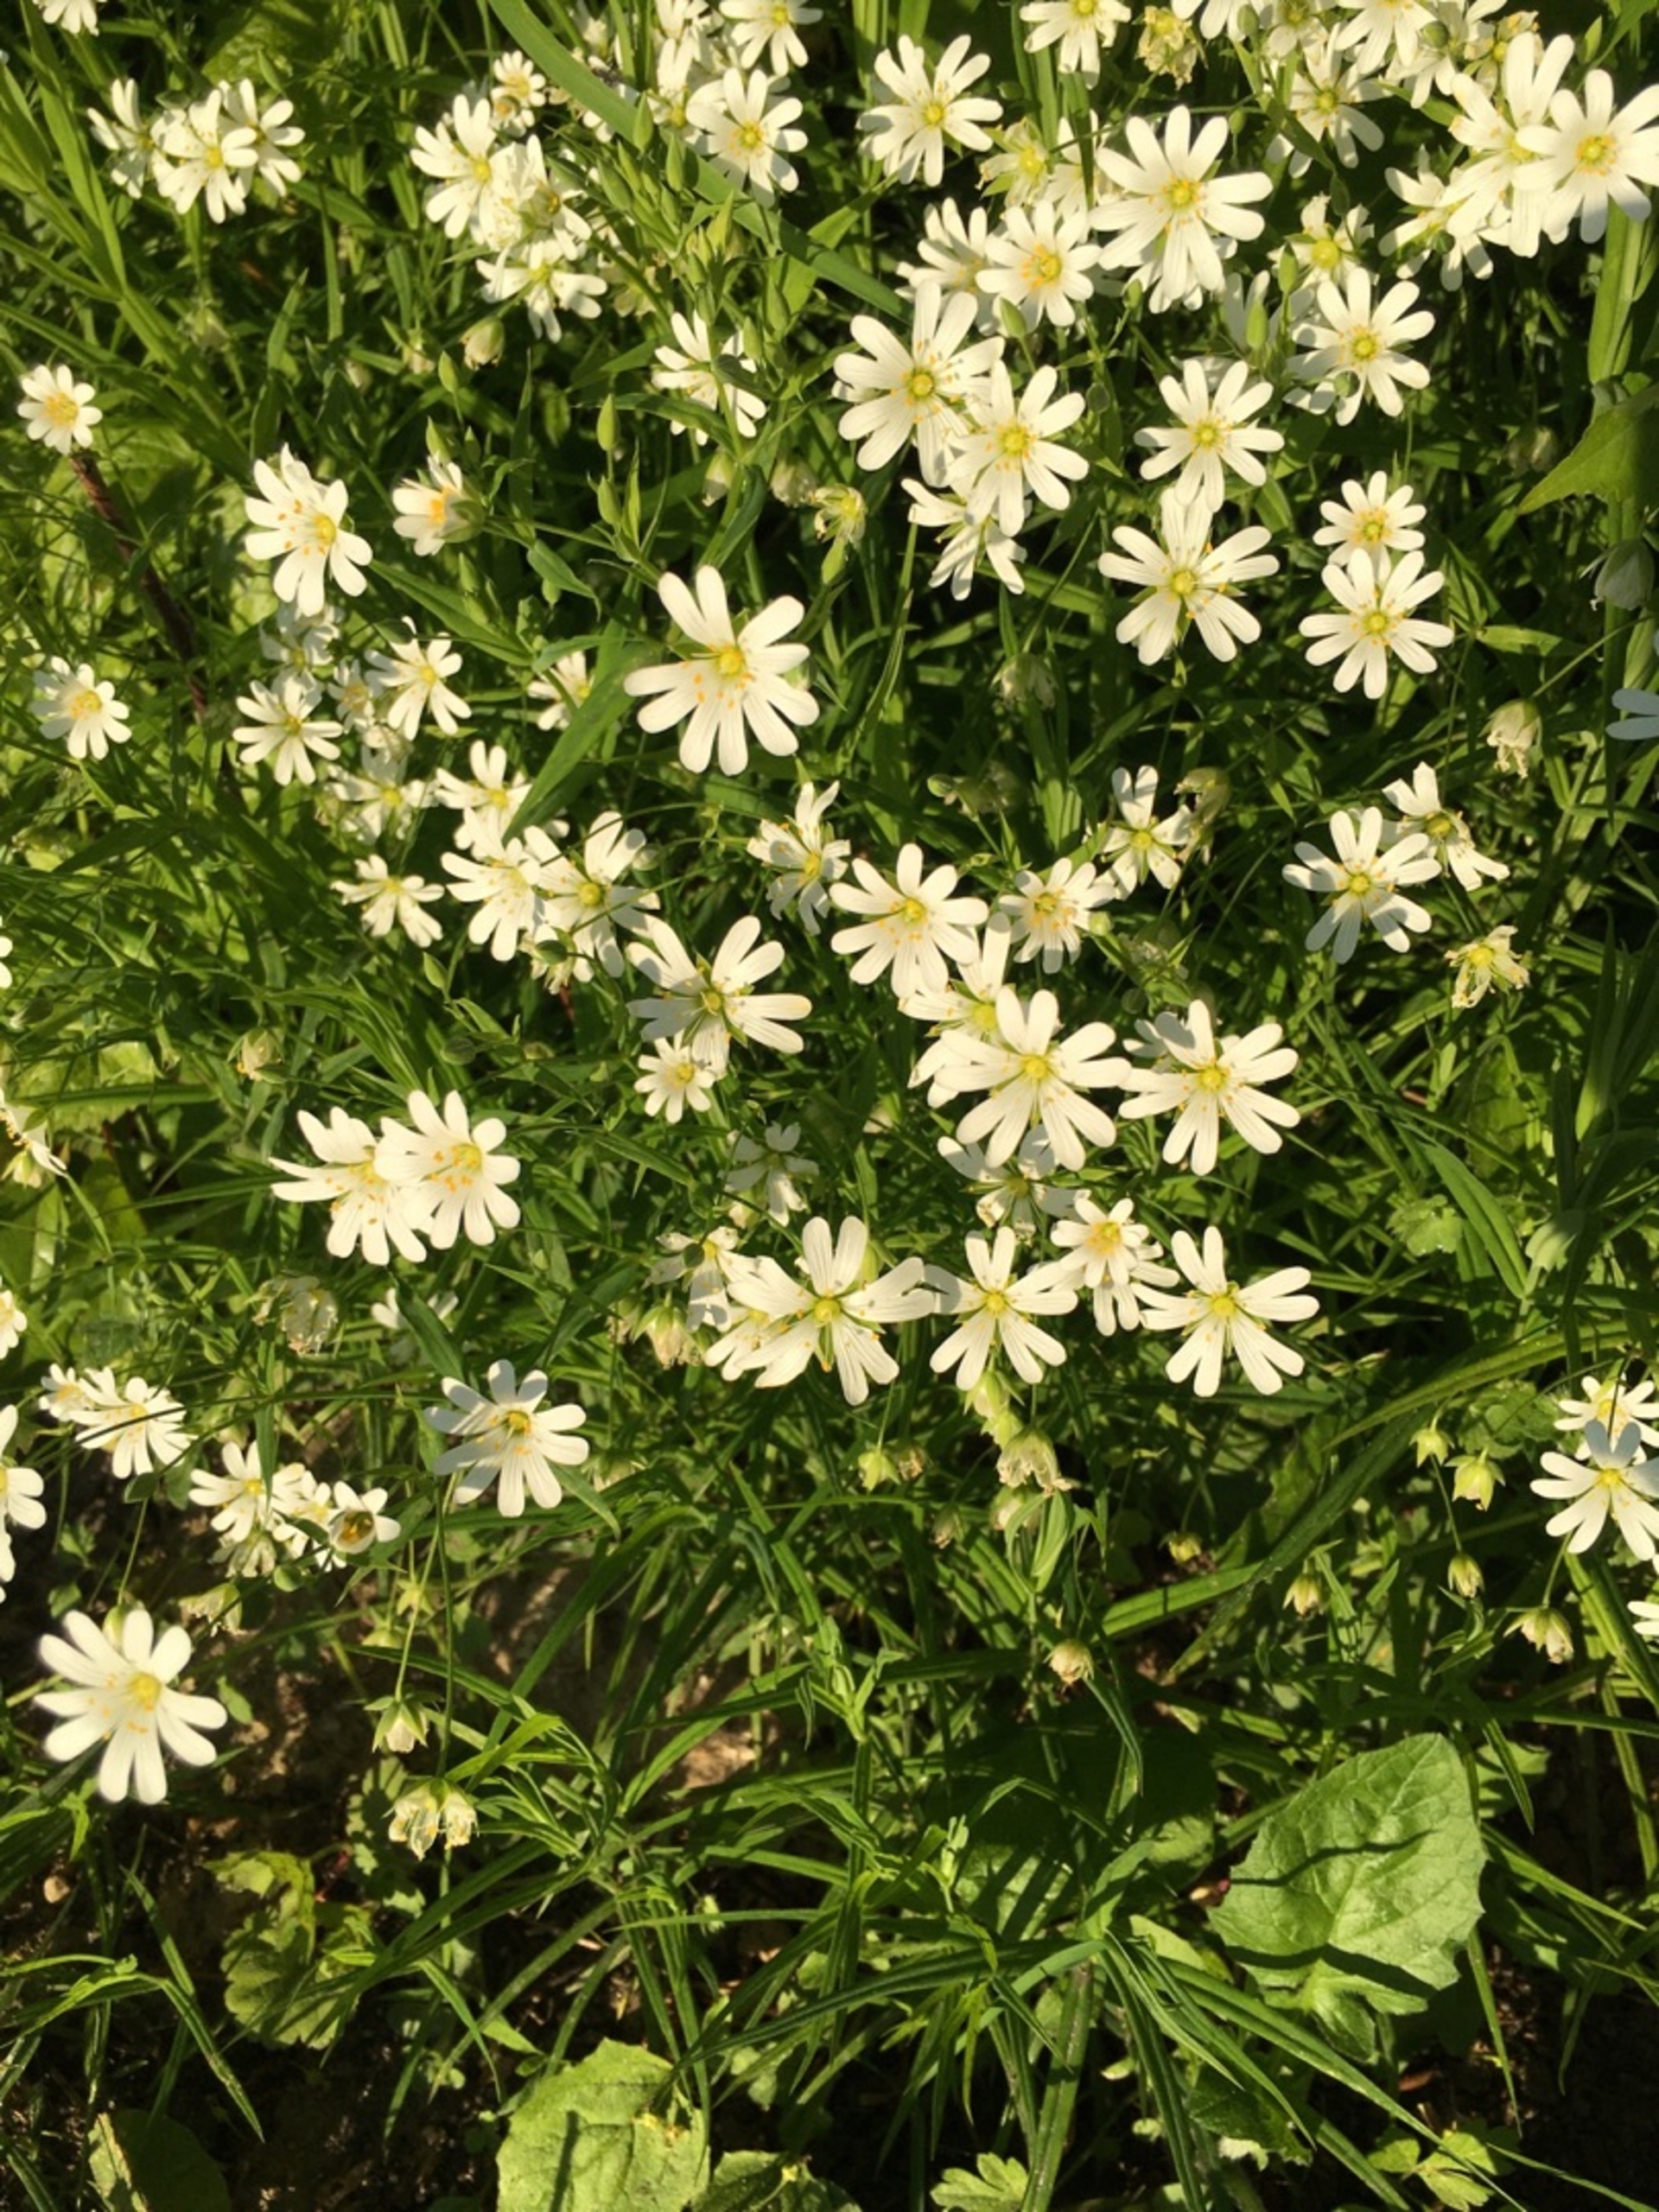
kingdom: Plantae
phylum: Tracheophyta
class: Magnoliopsida
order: Caryophyllales
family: Caryophyllaceae
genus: Rabelera
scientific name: Rabelera holostea
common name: Stor fladstjerne
